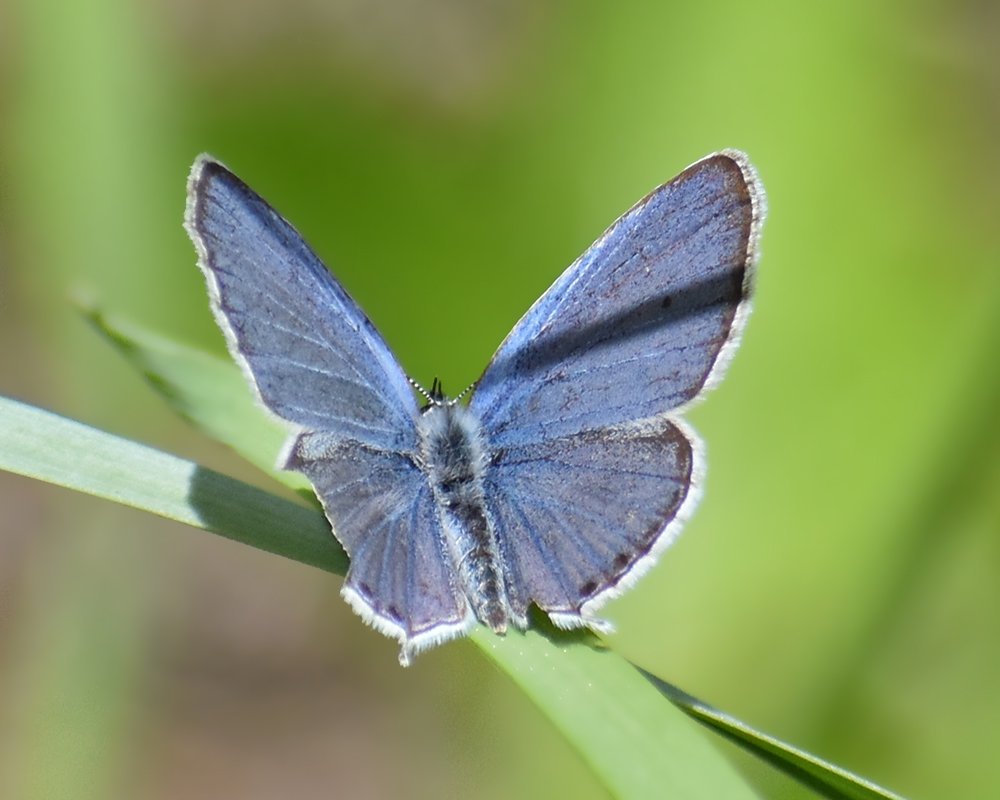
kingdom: Animalia
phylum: Arthropoda
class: Insecta
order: Lepidoptera
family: Lycaenidae
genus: Elkalyce
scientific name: Elkalyce amyntula
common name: Western Tailed-Blue
